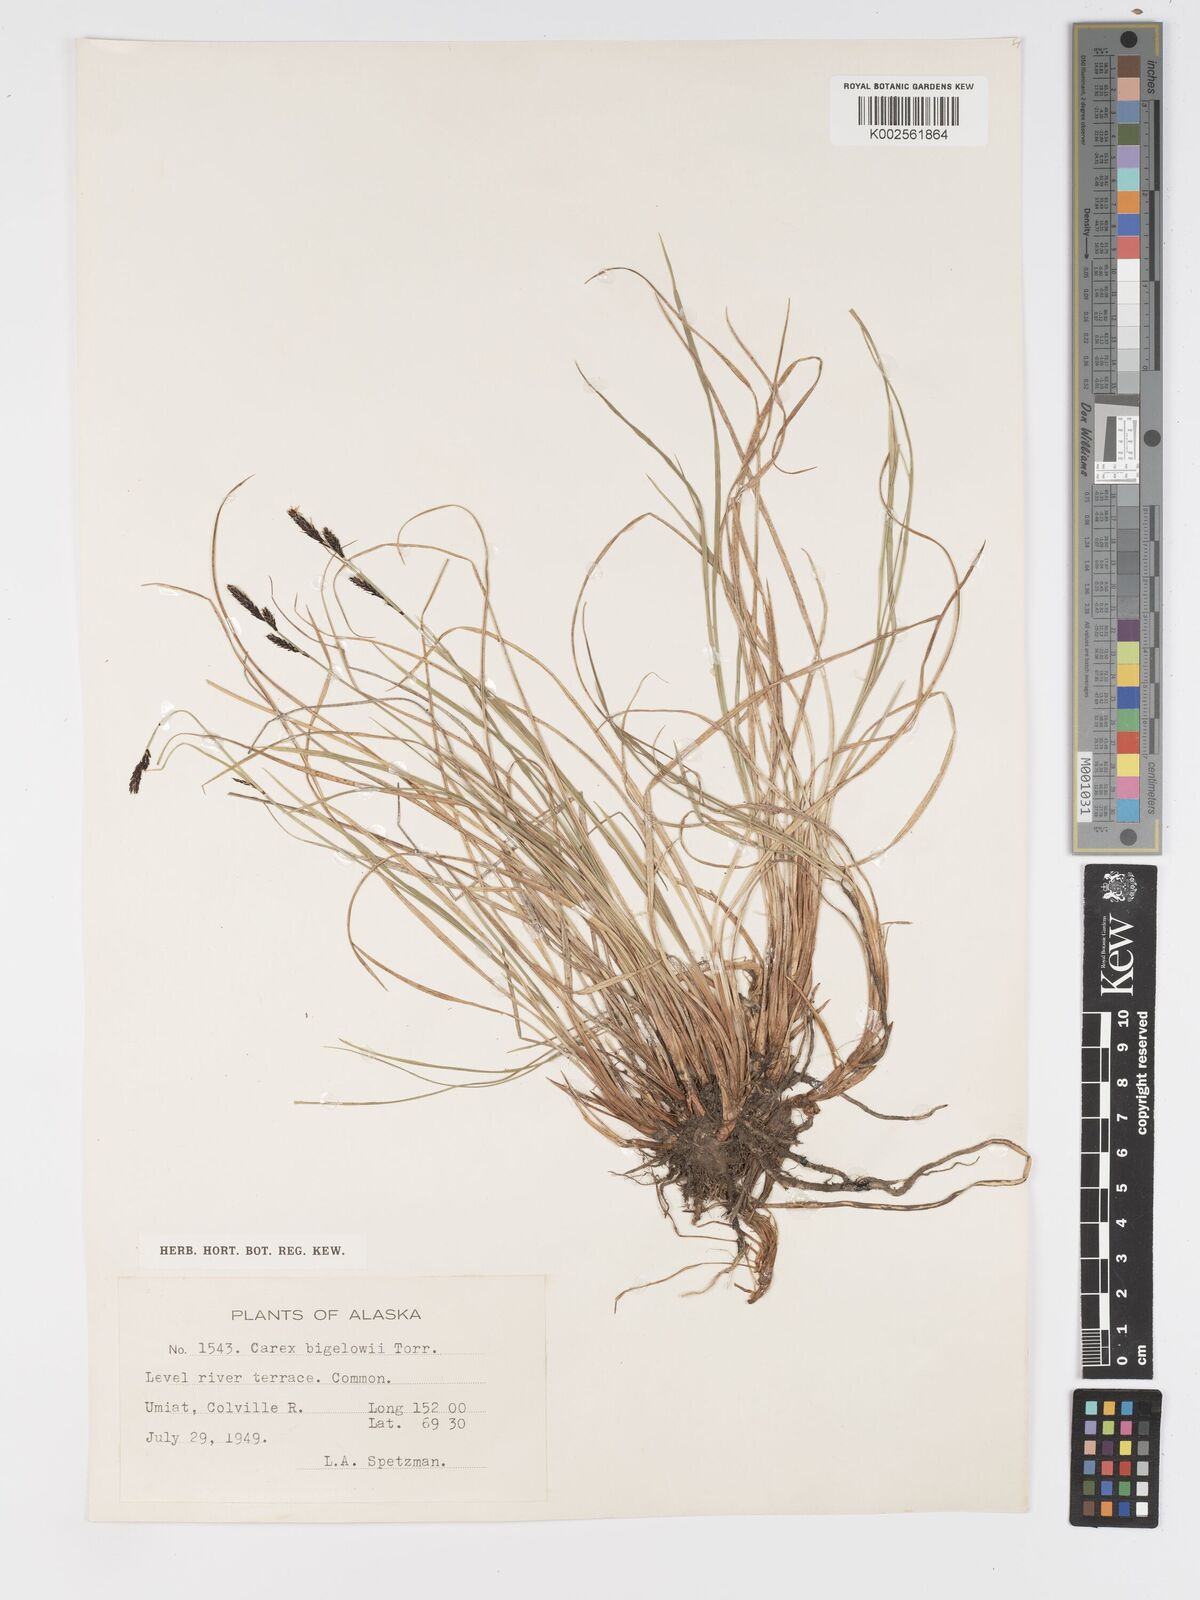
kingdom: Plantae
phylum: Tracheophyta
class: Liliopsida
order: Poales
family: Cyperaceae
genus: Carex
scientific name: Carex bigelowii
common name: Stiff sedge
